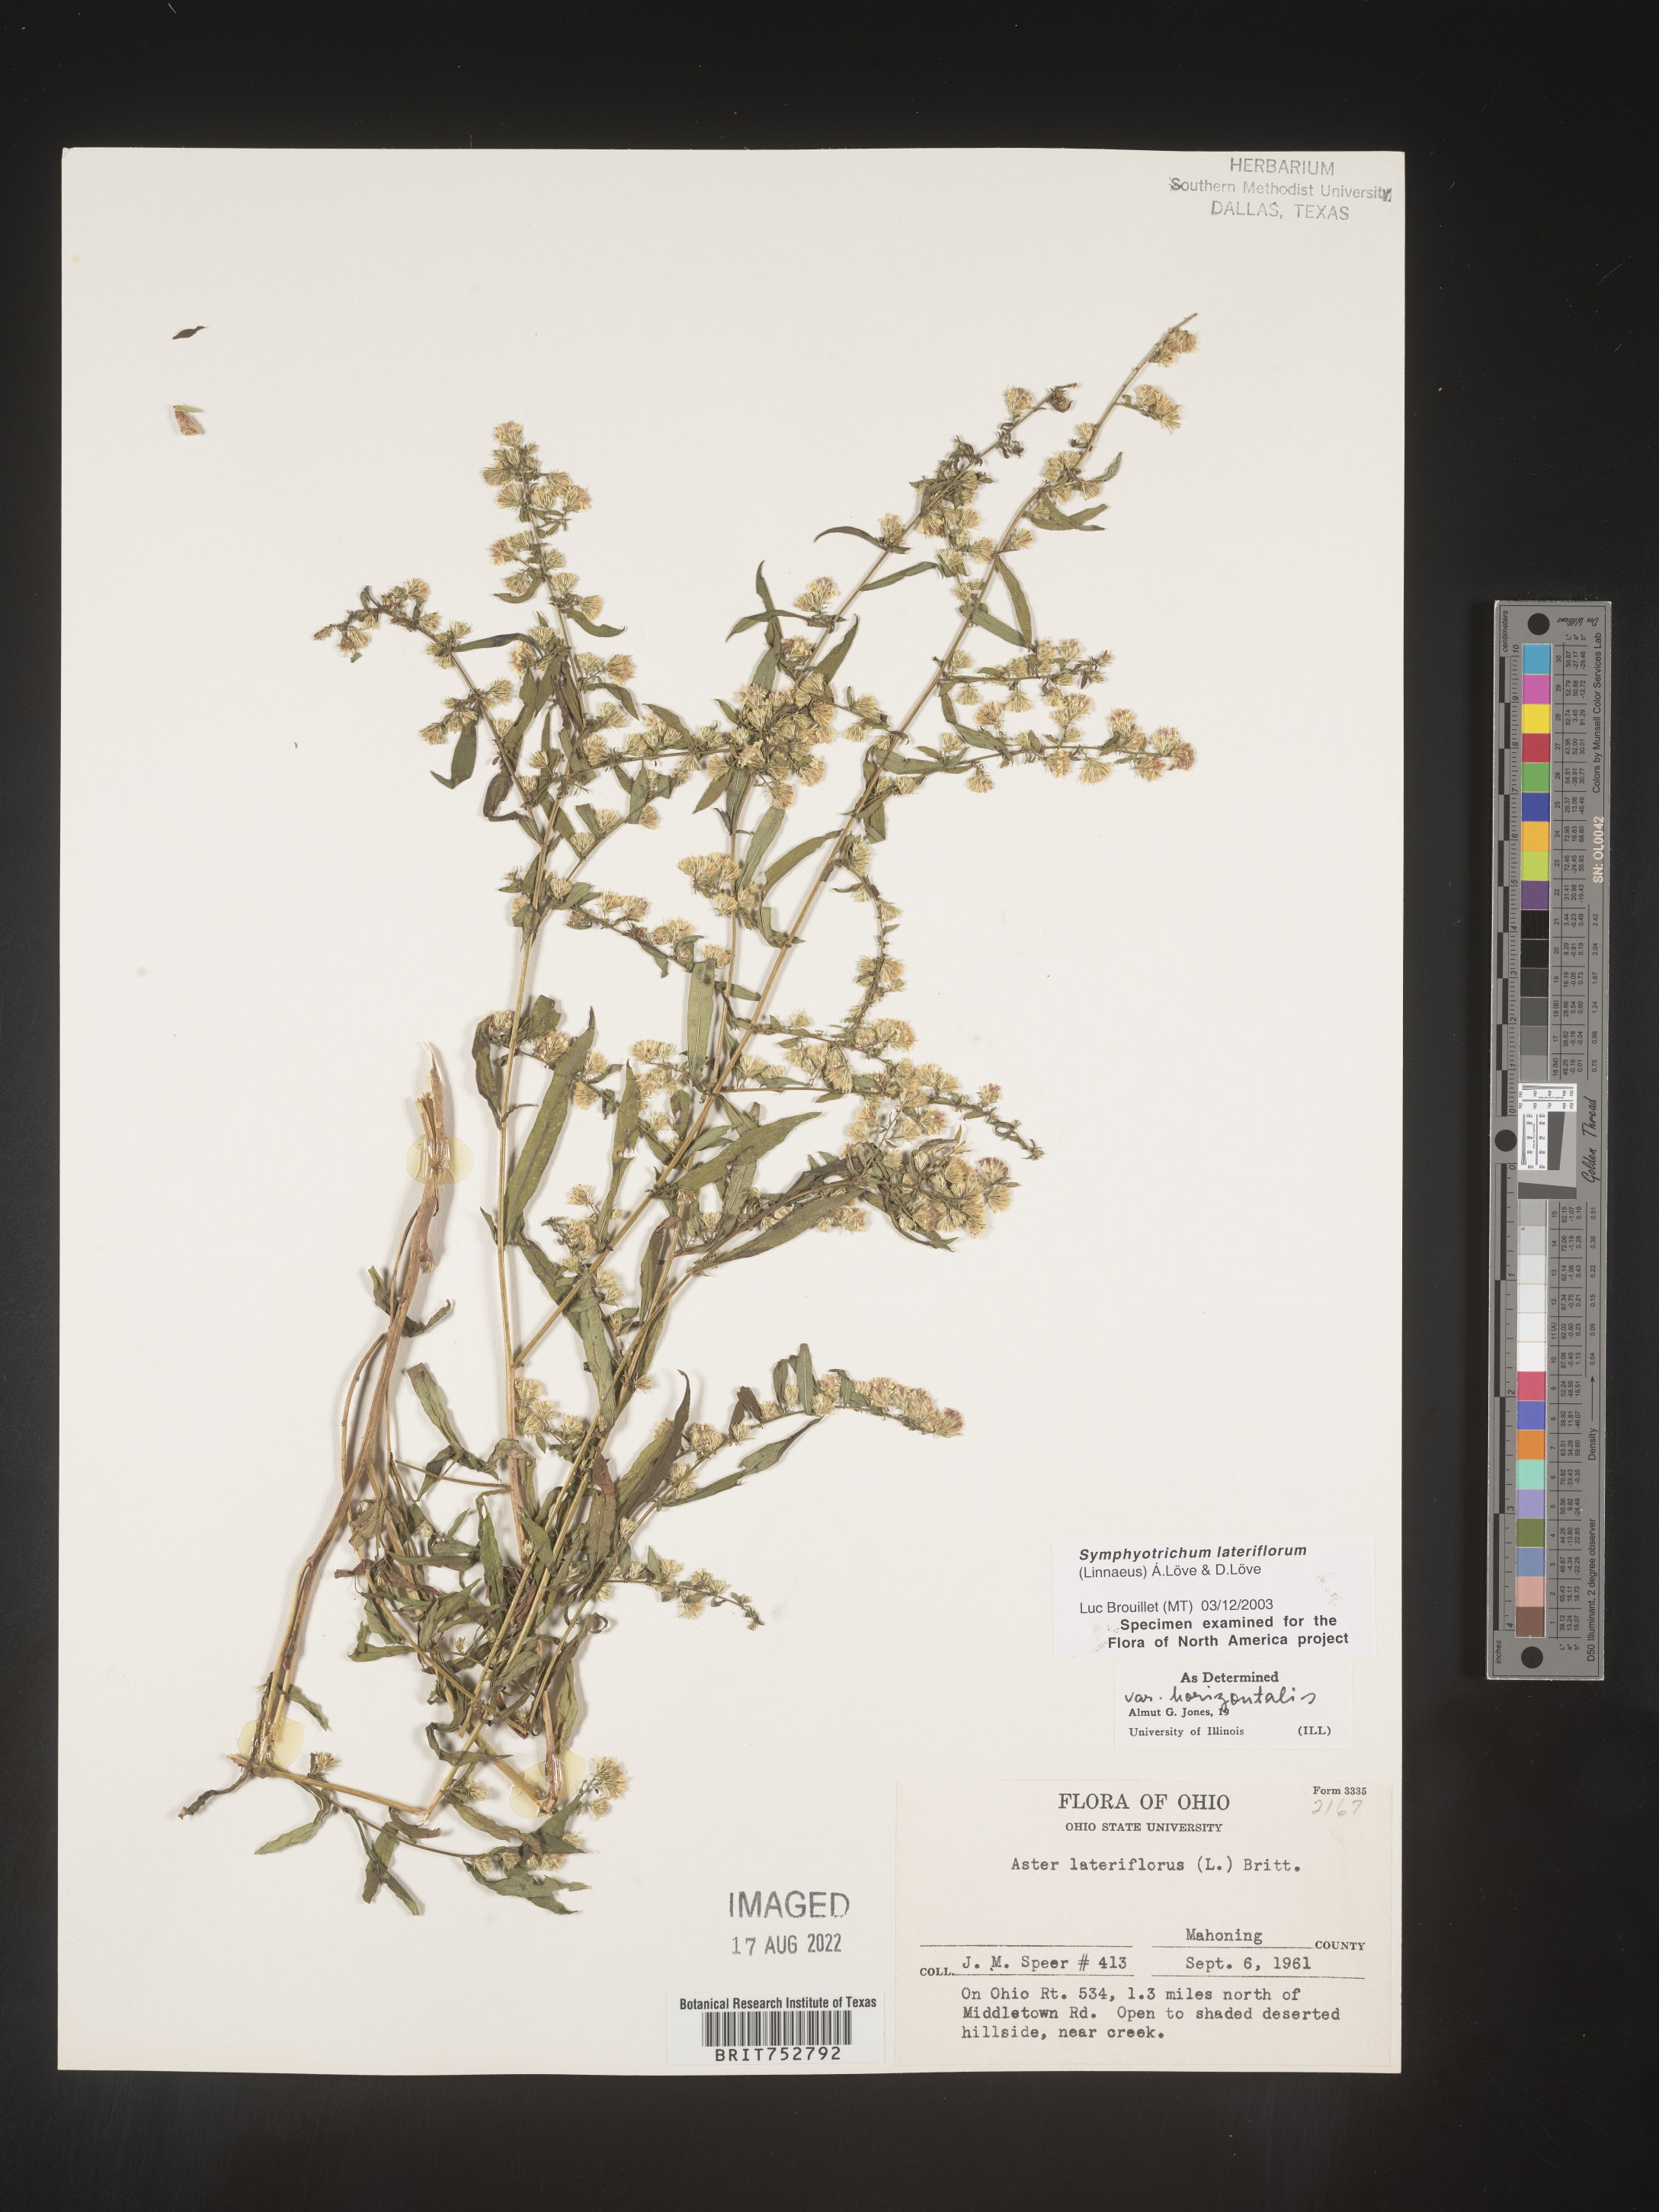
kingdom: Plantae
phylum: Tracheophyta
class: Magnoliopsida
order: Asterales
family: Asteraceae
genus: Symphyotrichum
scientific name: Symphyotrichum lateriflorum
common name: Calico aster
